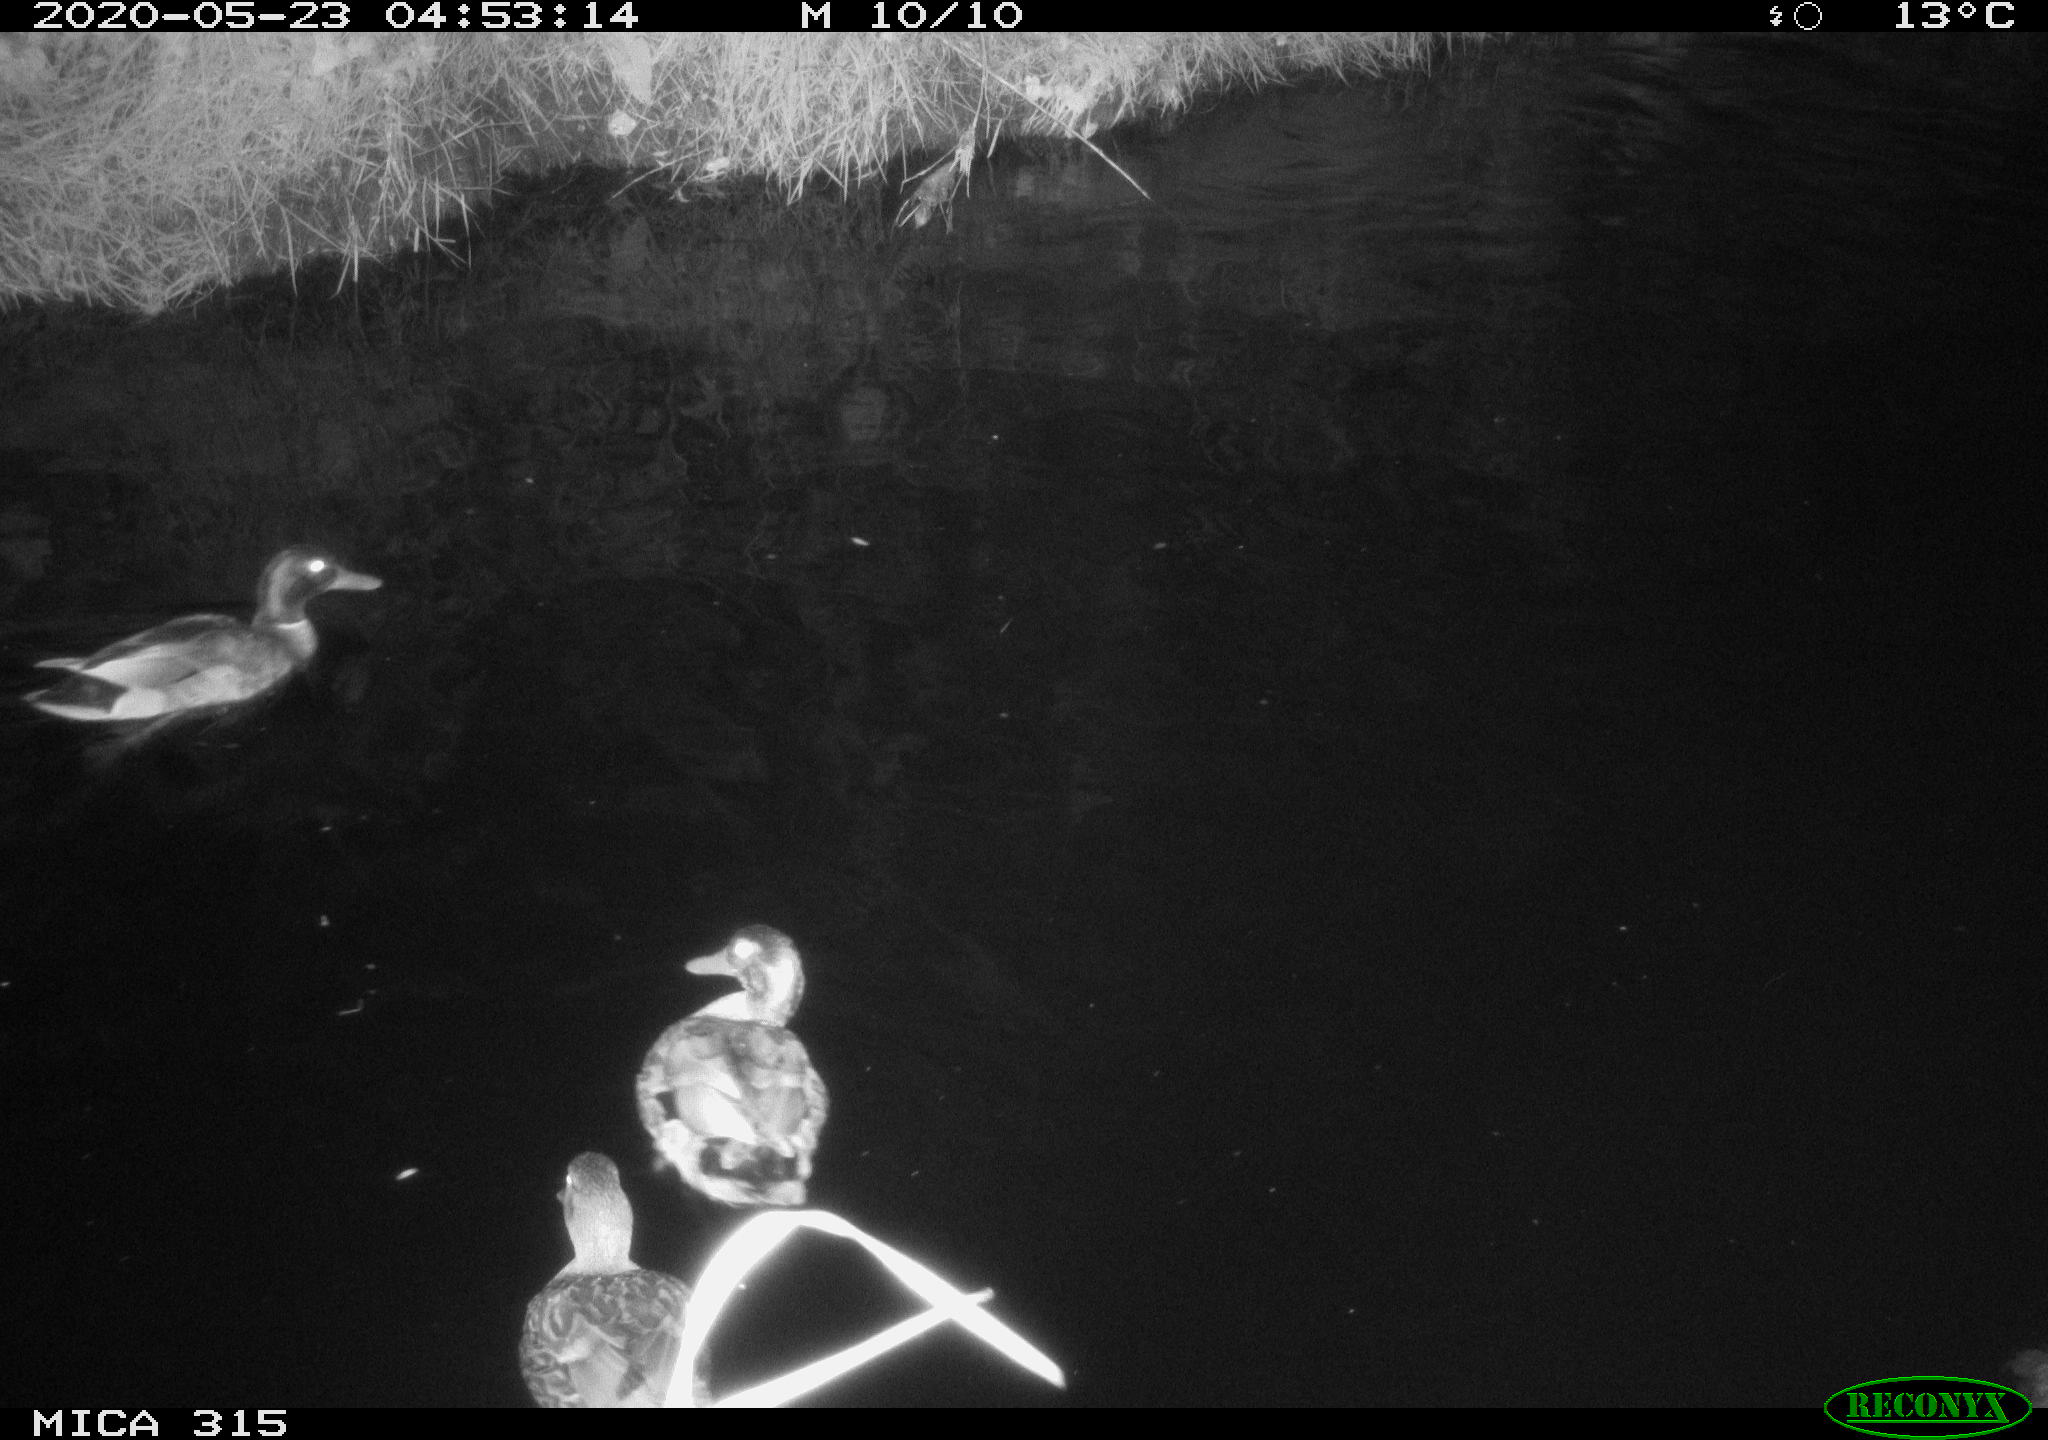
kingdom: Animalia
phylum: Chordata
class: Aves
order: Anseriformes
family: Anatidae
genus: Anas
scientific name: Anas platyrhynchos
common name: Mallard
